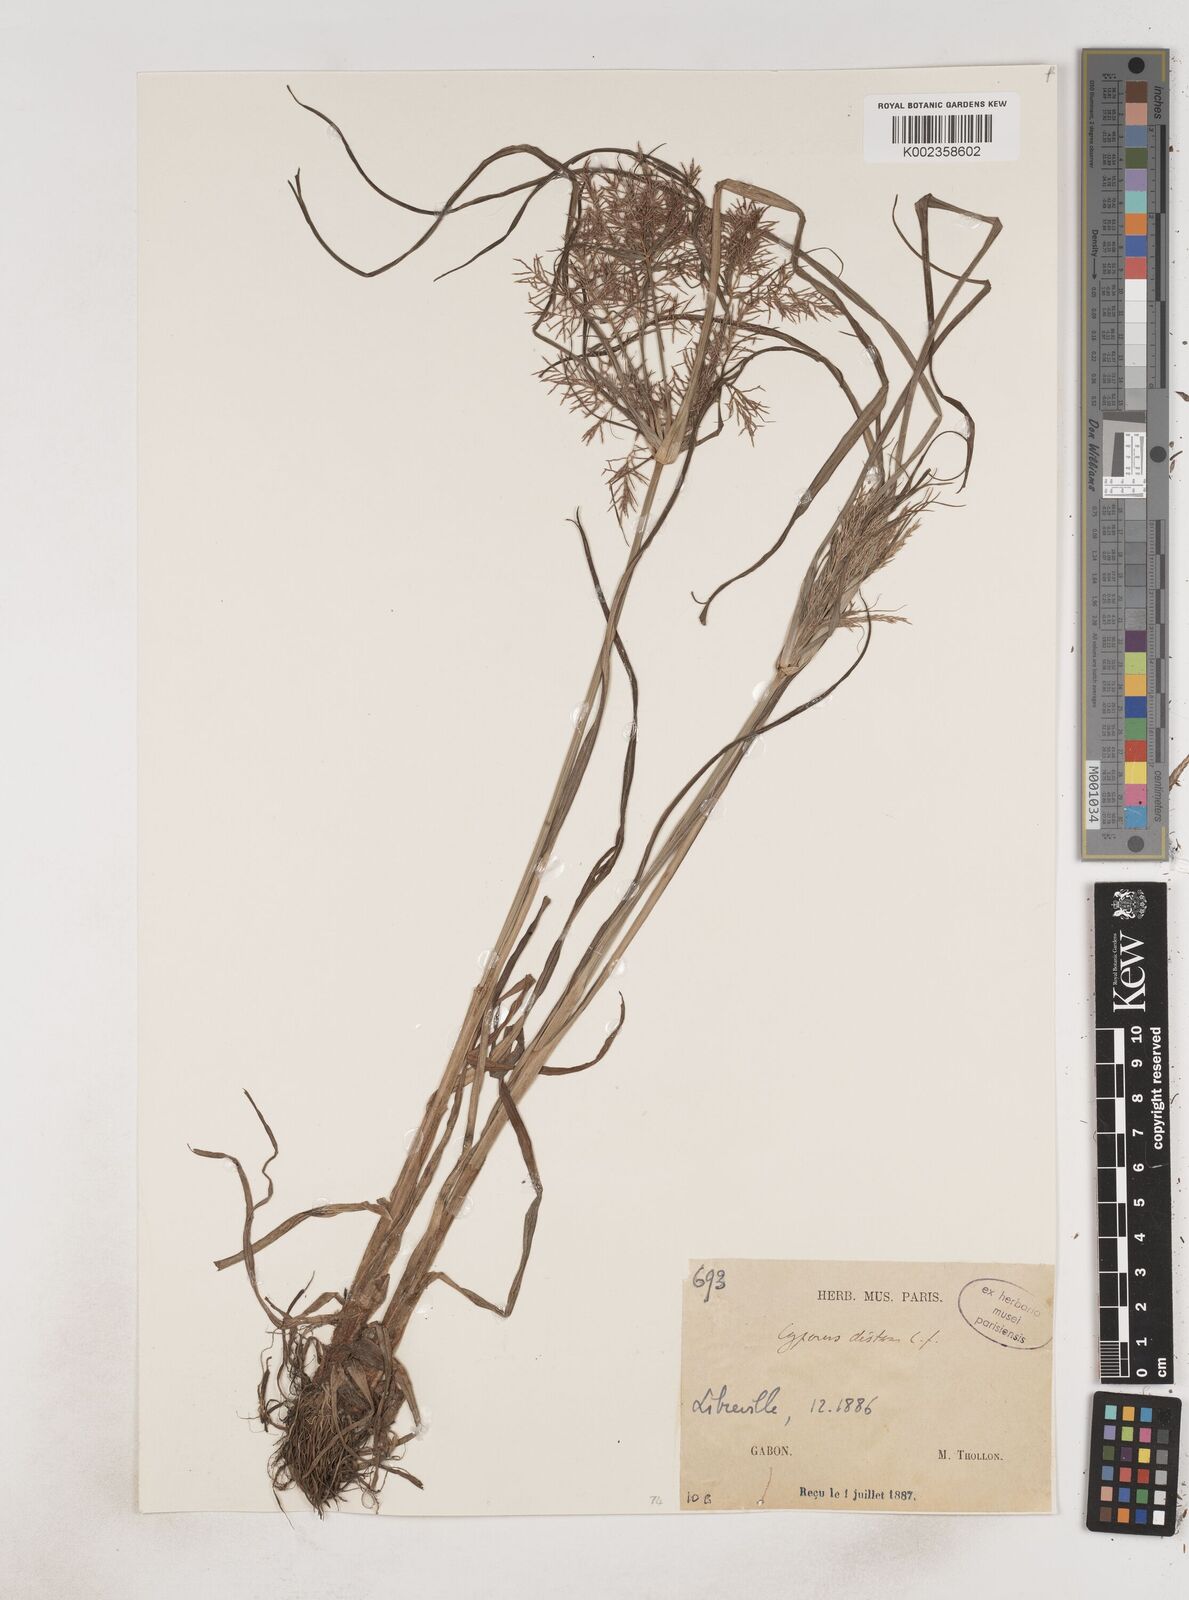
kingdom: Plantae
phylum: Tracheophyta
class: Liliopsida
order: Poales
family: Cyperaceae
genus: Cyperus
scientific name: Cyperus distans
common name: Slender cyperus
